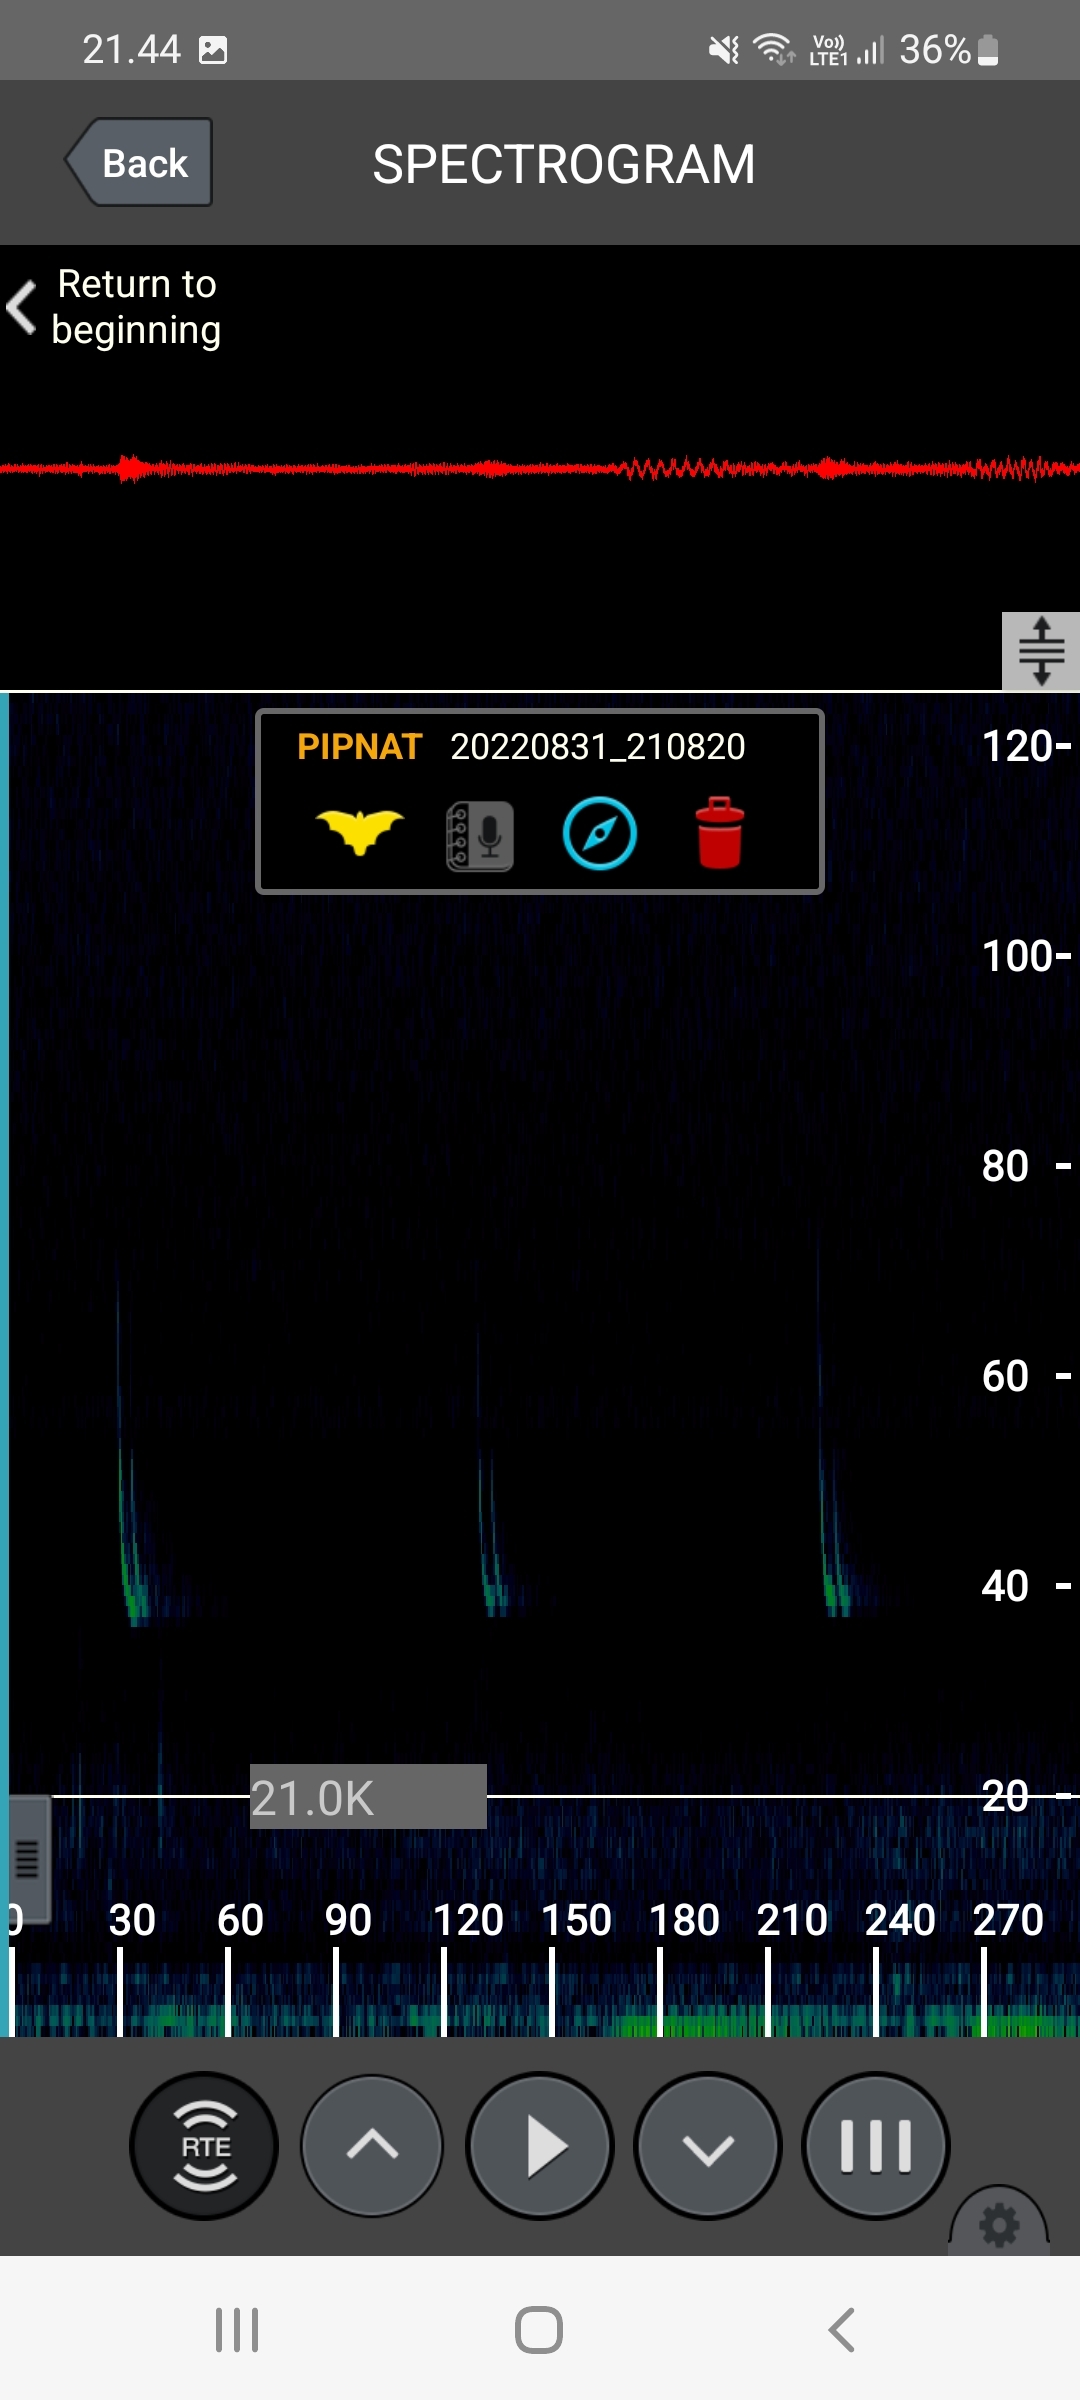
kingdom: Animalia
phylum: Chordata
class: Mammalia
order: Chiroptera
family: Vespertilionidae
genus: Pipistrellus
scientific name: Pipistrellus nathusii
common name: Troldflagermus
